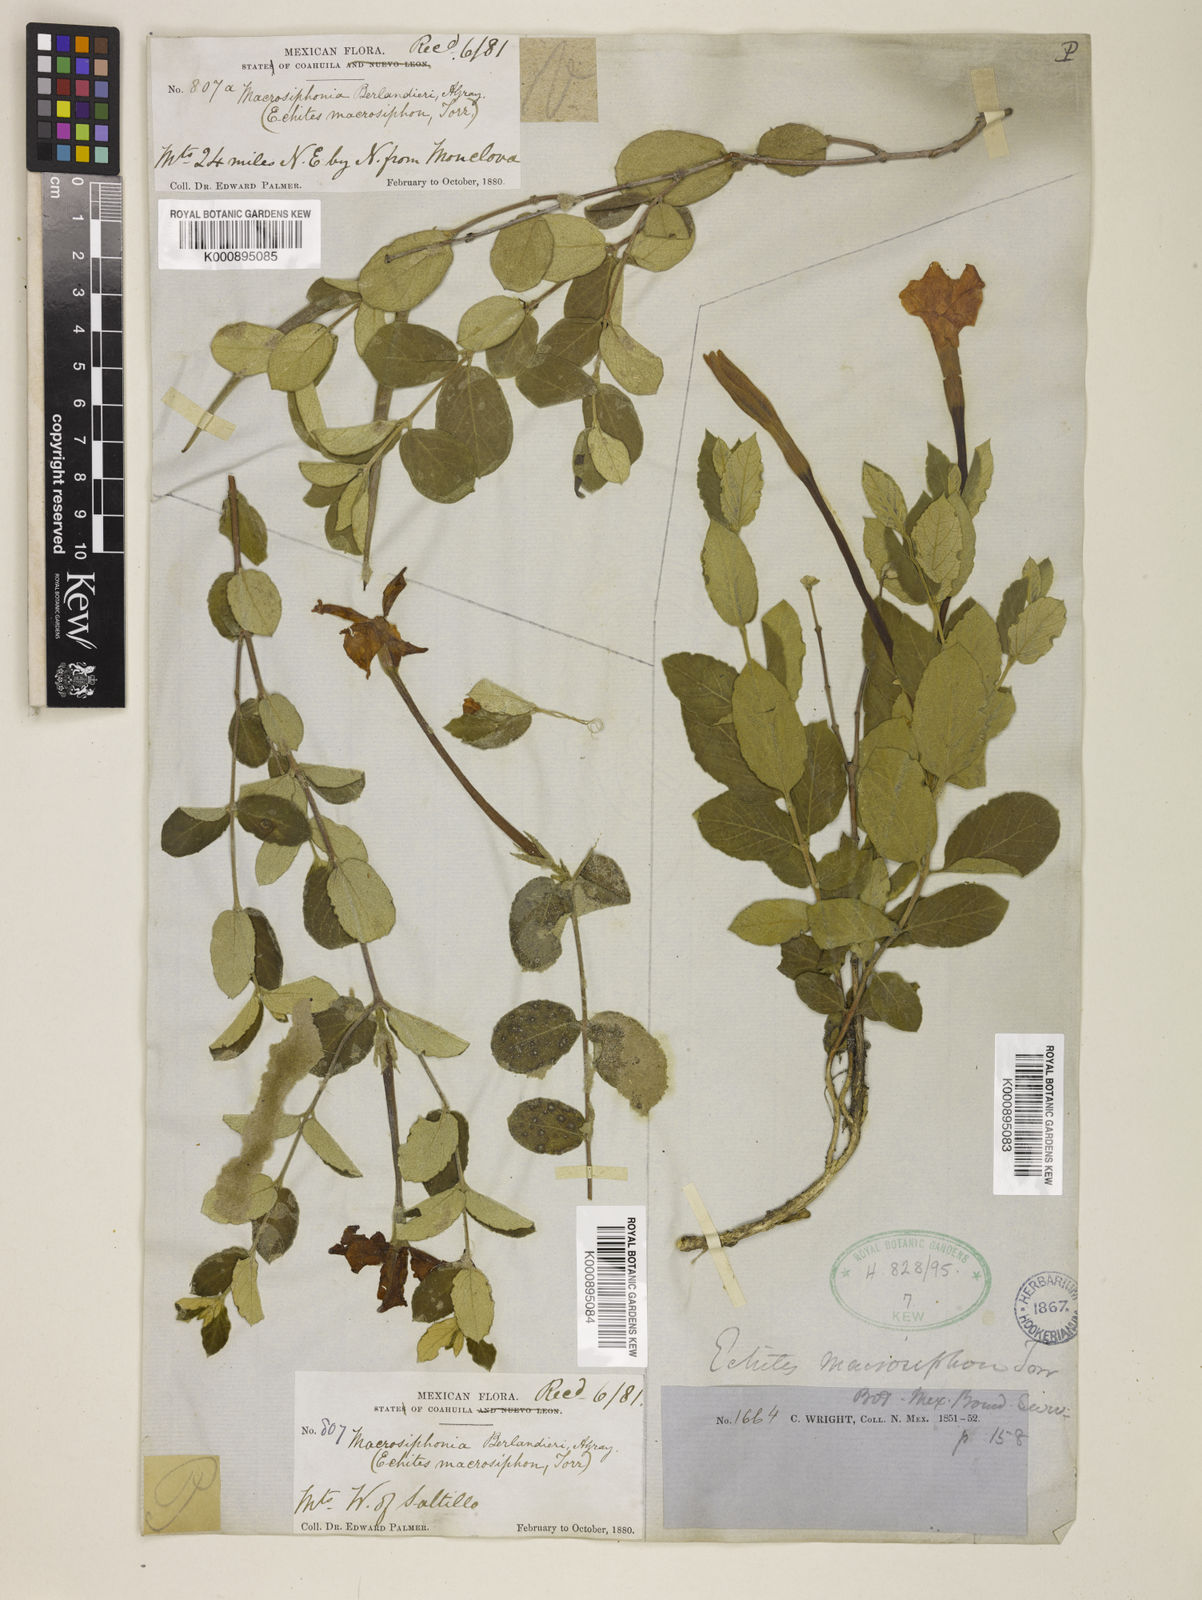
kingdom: Plantae
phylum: Tracheophyta
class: Magnoliopsida
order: Gentianales
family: Apocynaceae
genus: Mandevilla
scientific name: Mandevilla macrosiphon
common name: Plateau rocktrumpet
